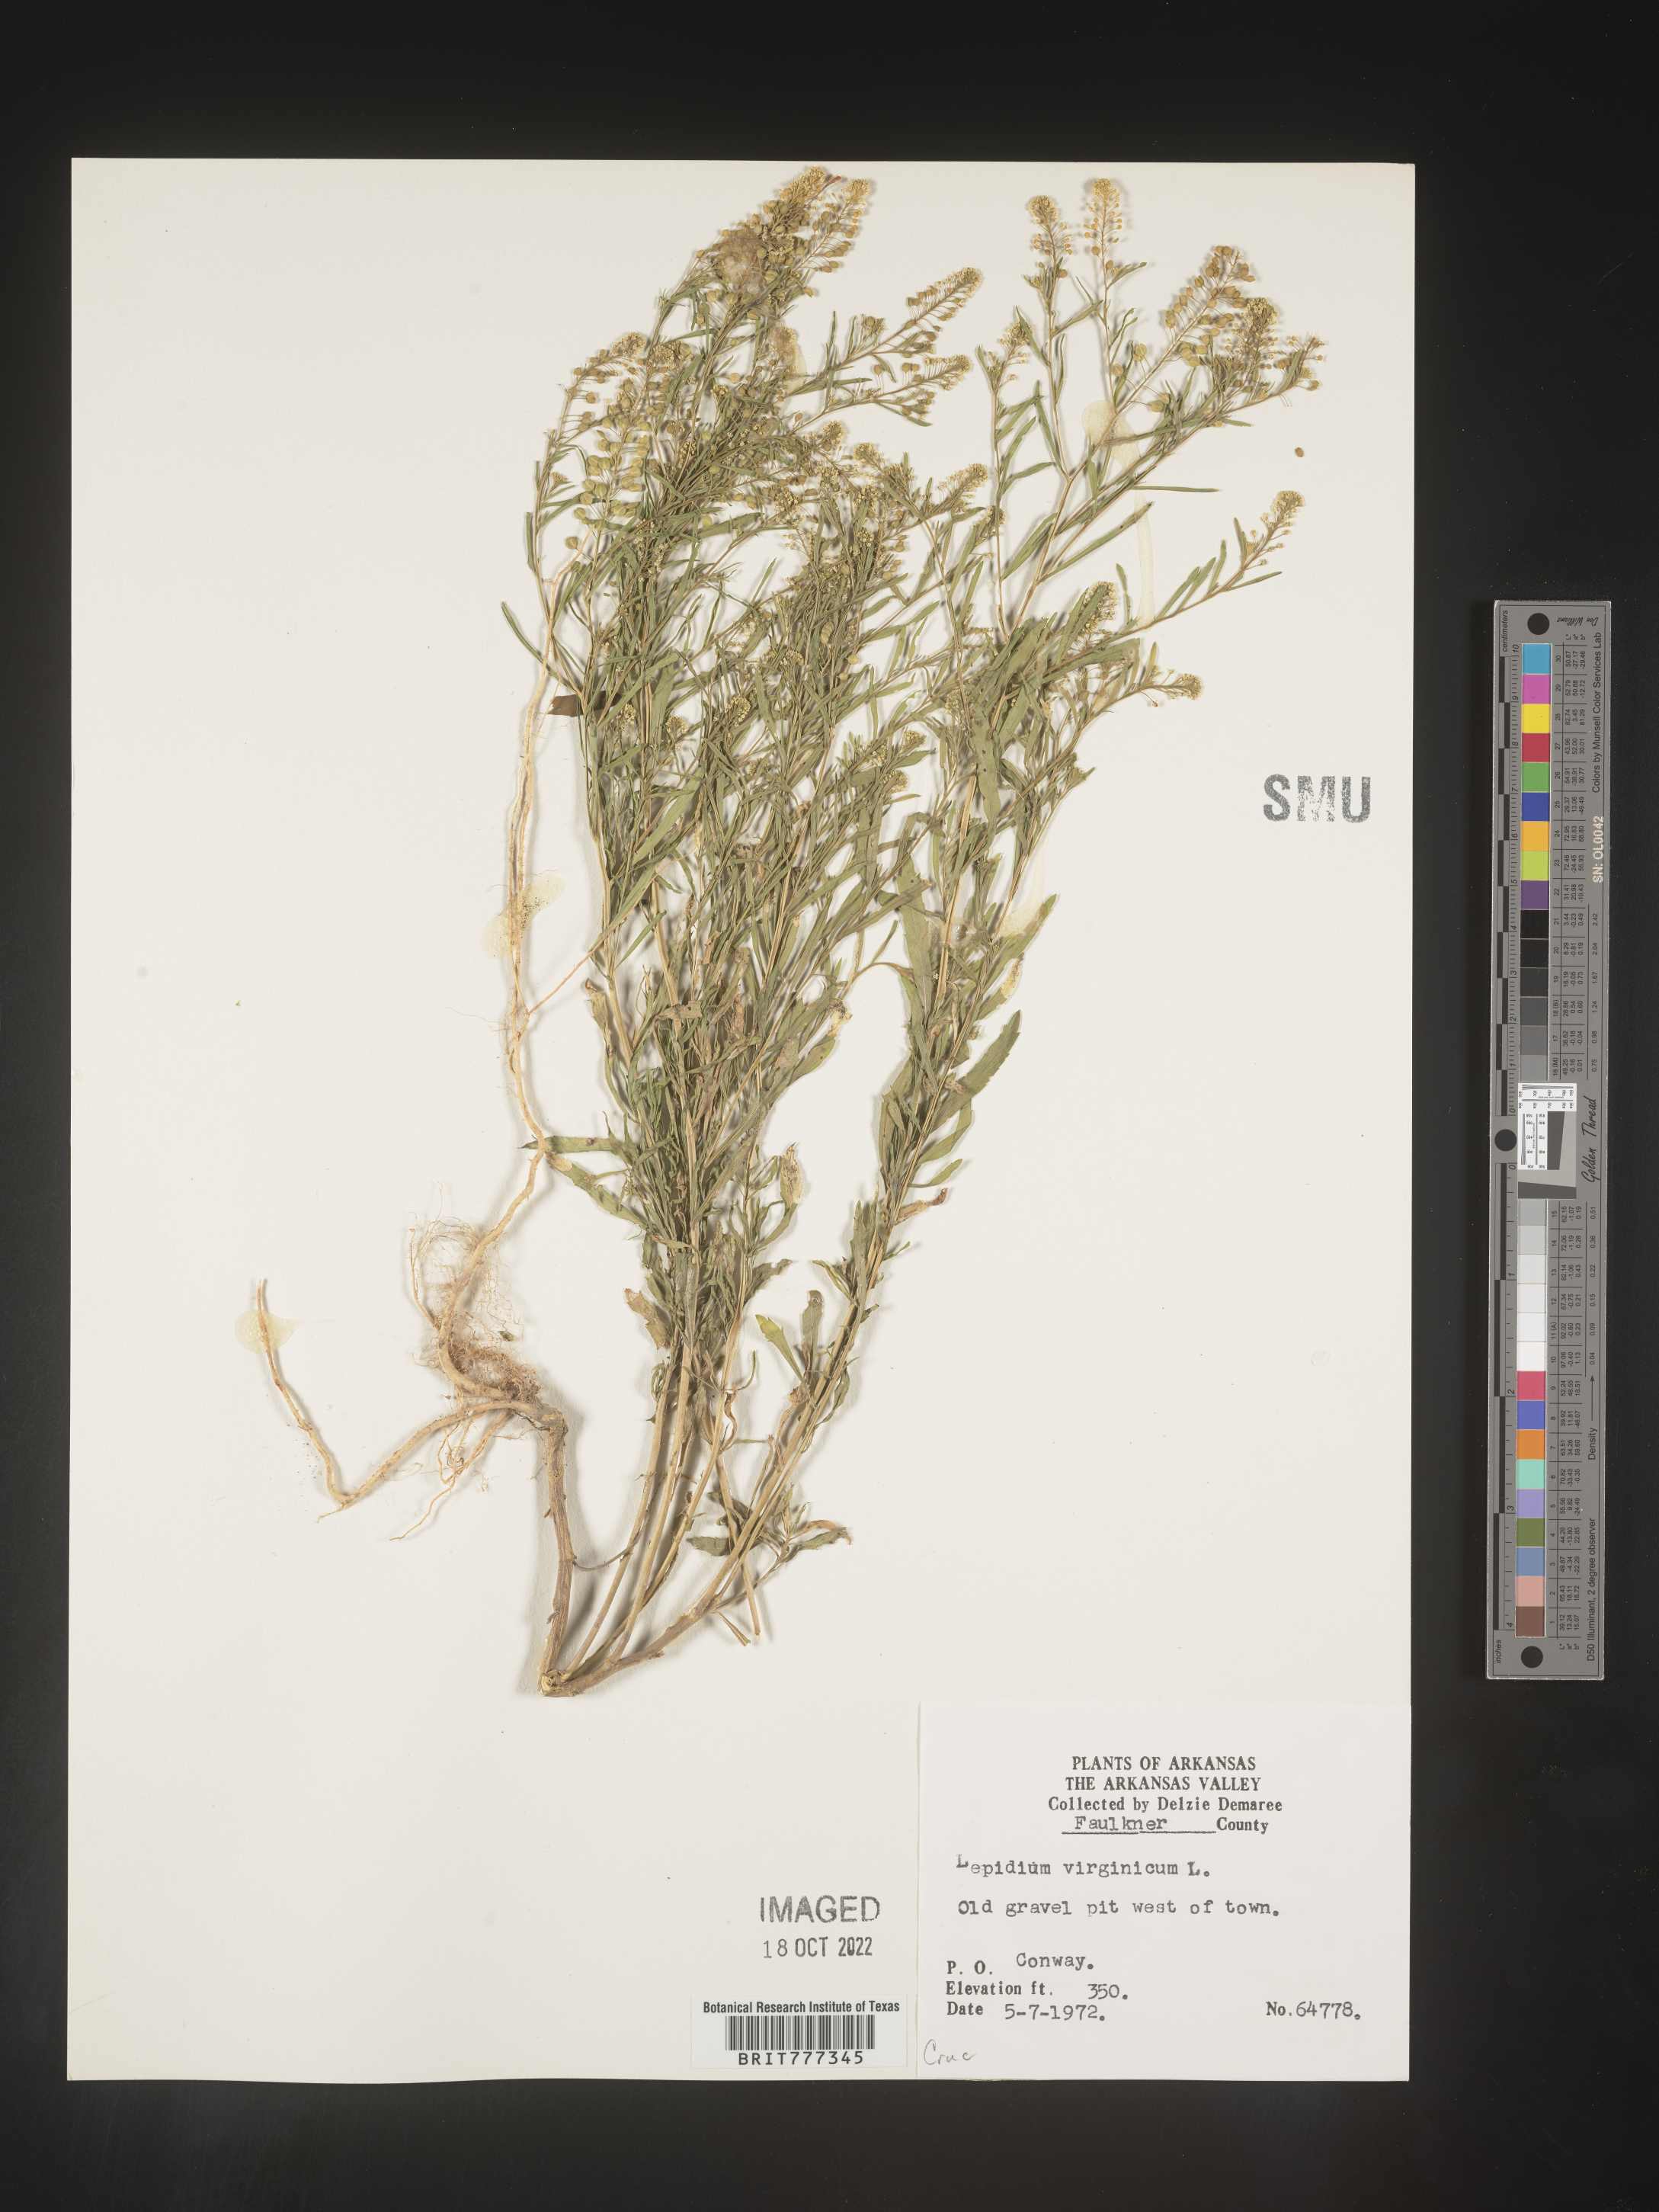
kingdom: Plantae
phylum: Tracheophyta
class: Magnoliopsida
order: Brassicales
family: Brassicaceae
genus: Lepidium
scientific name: Lepidium virginicum
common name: Least pepperwort
